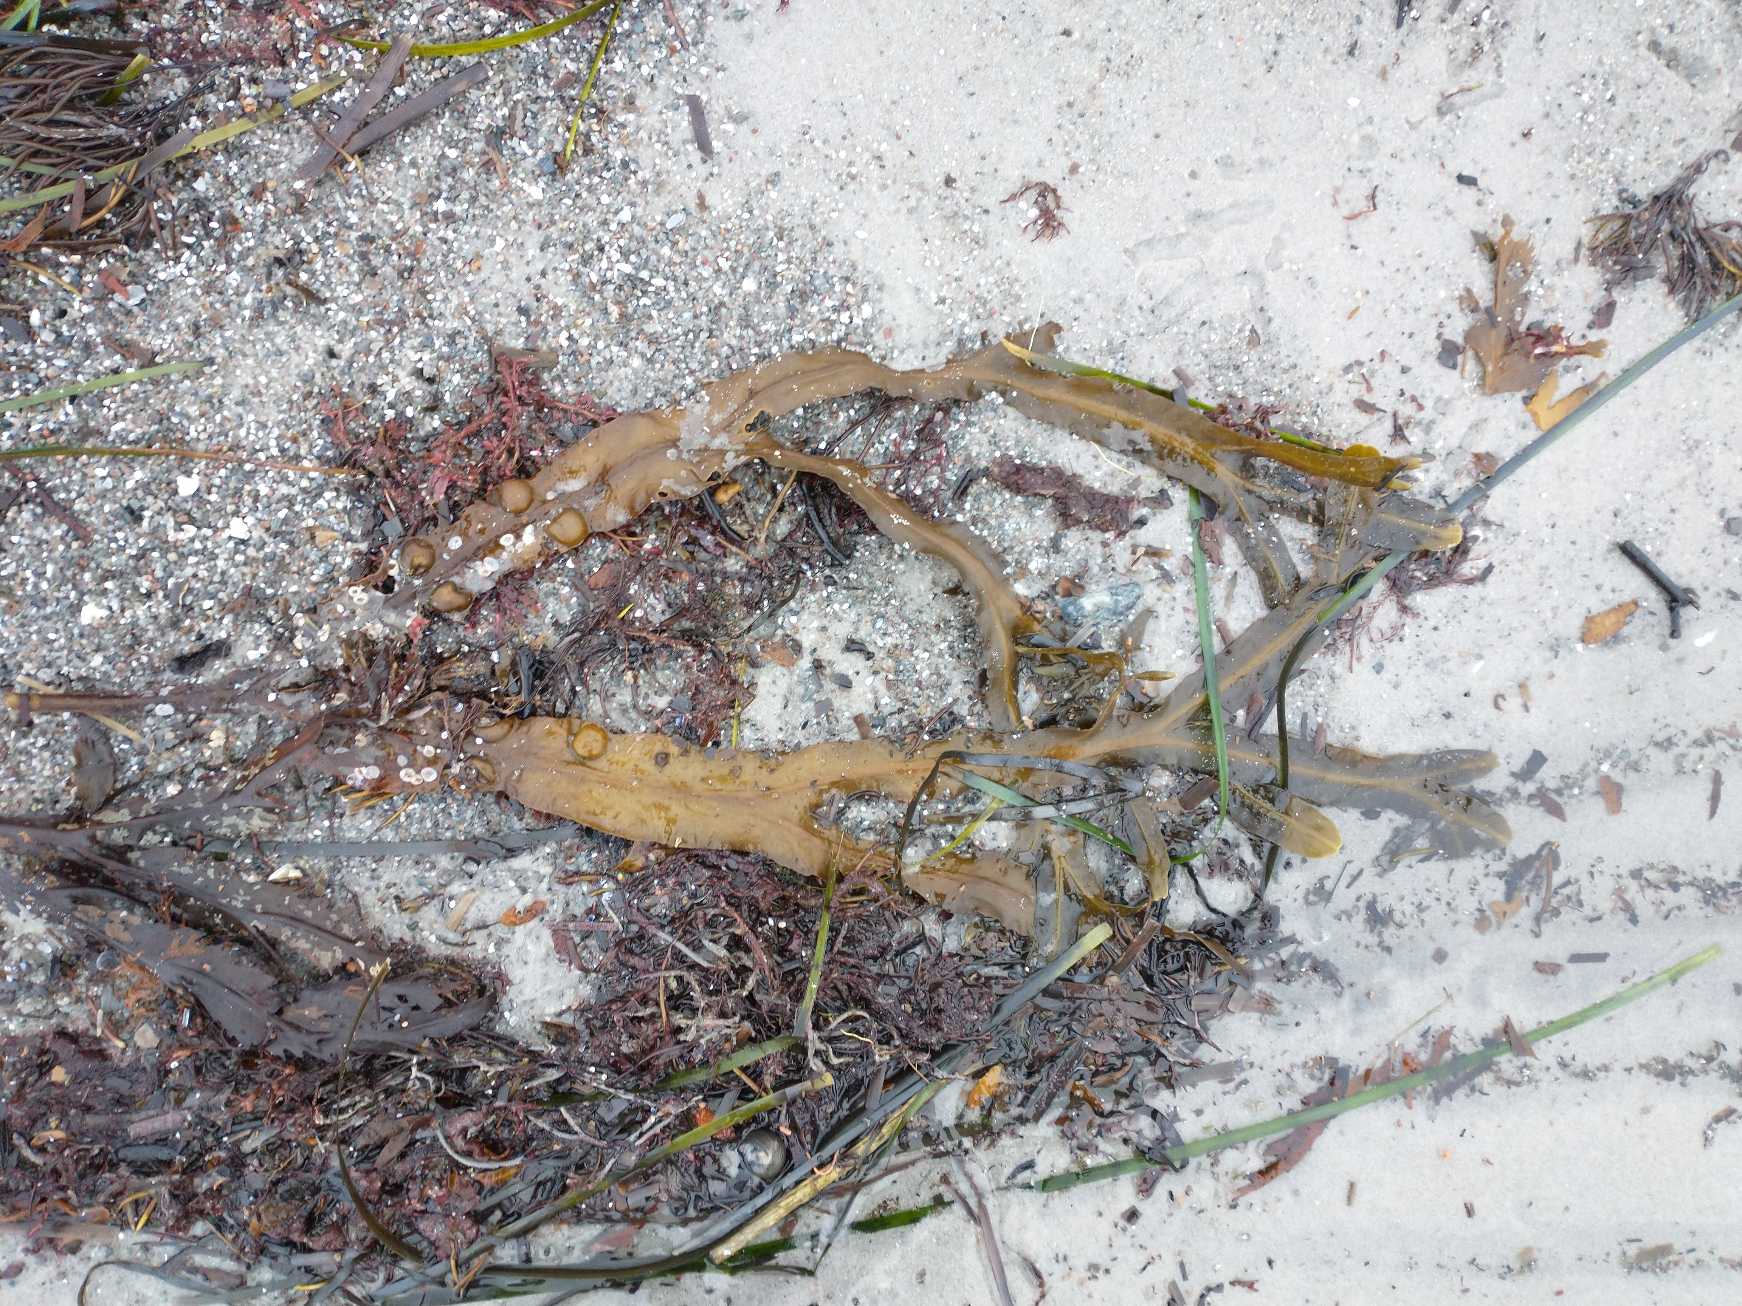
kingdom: Chromista
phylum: Ochrophyta
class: Phaeophyceae
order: Fucales
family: Fucaceae
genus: Fucus
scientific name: Fucus vesiculosus
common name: Blæretang
